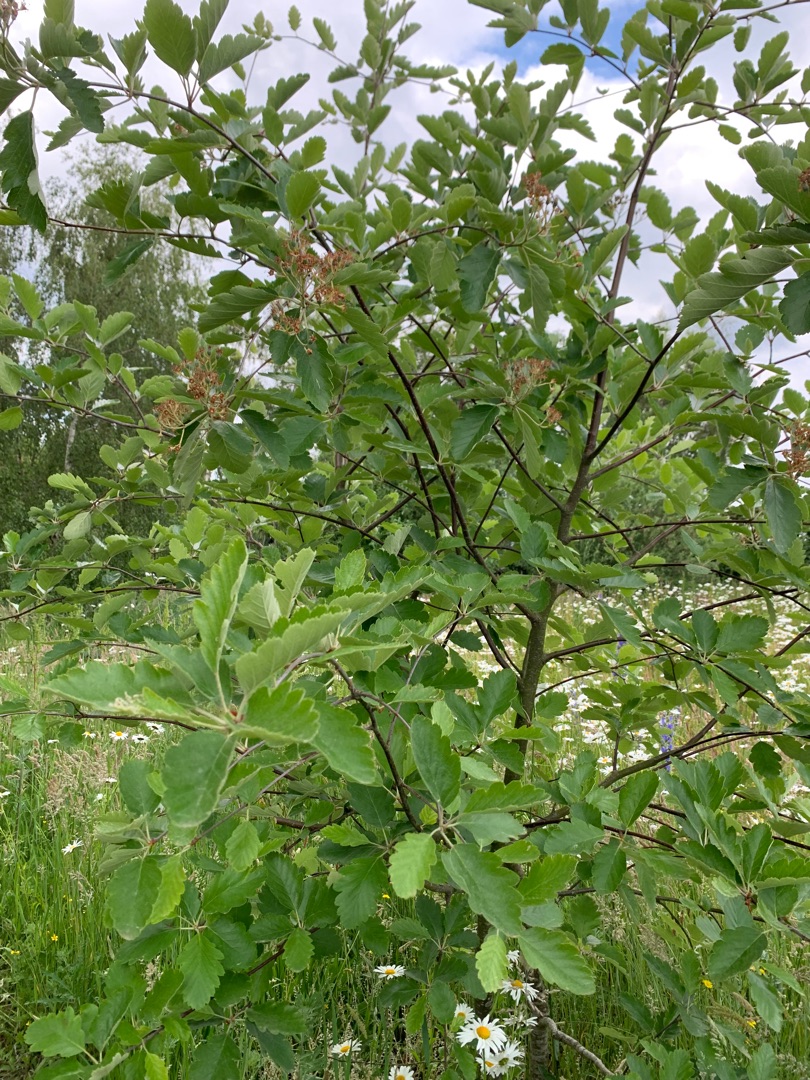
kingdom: Plantae
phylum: Tracheophyta
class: Magnoliopsida
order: Rosales
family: Rosaceae
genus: Scandosorbus
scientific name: Scandosorbus intermedia
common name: Selje-røn
